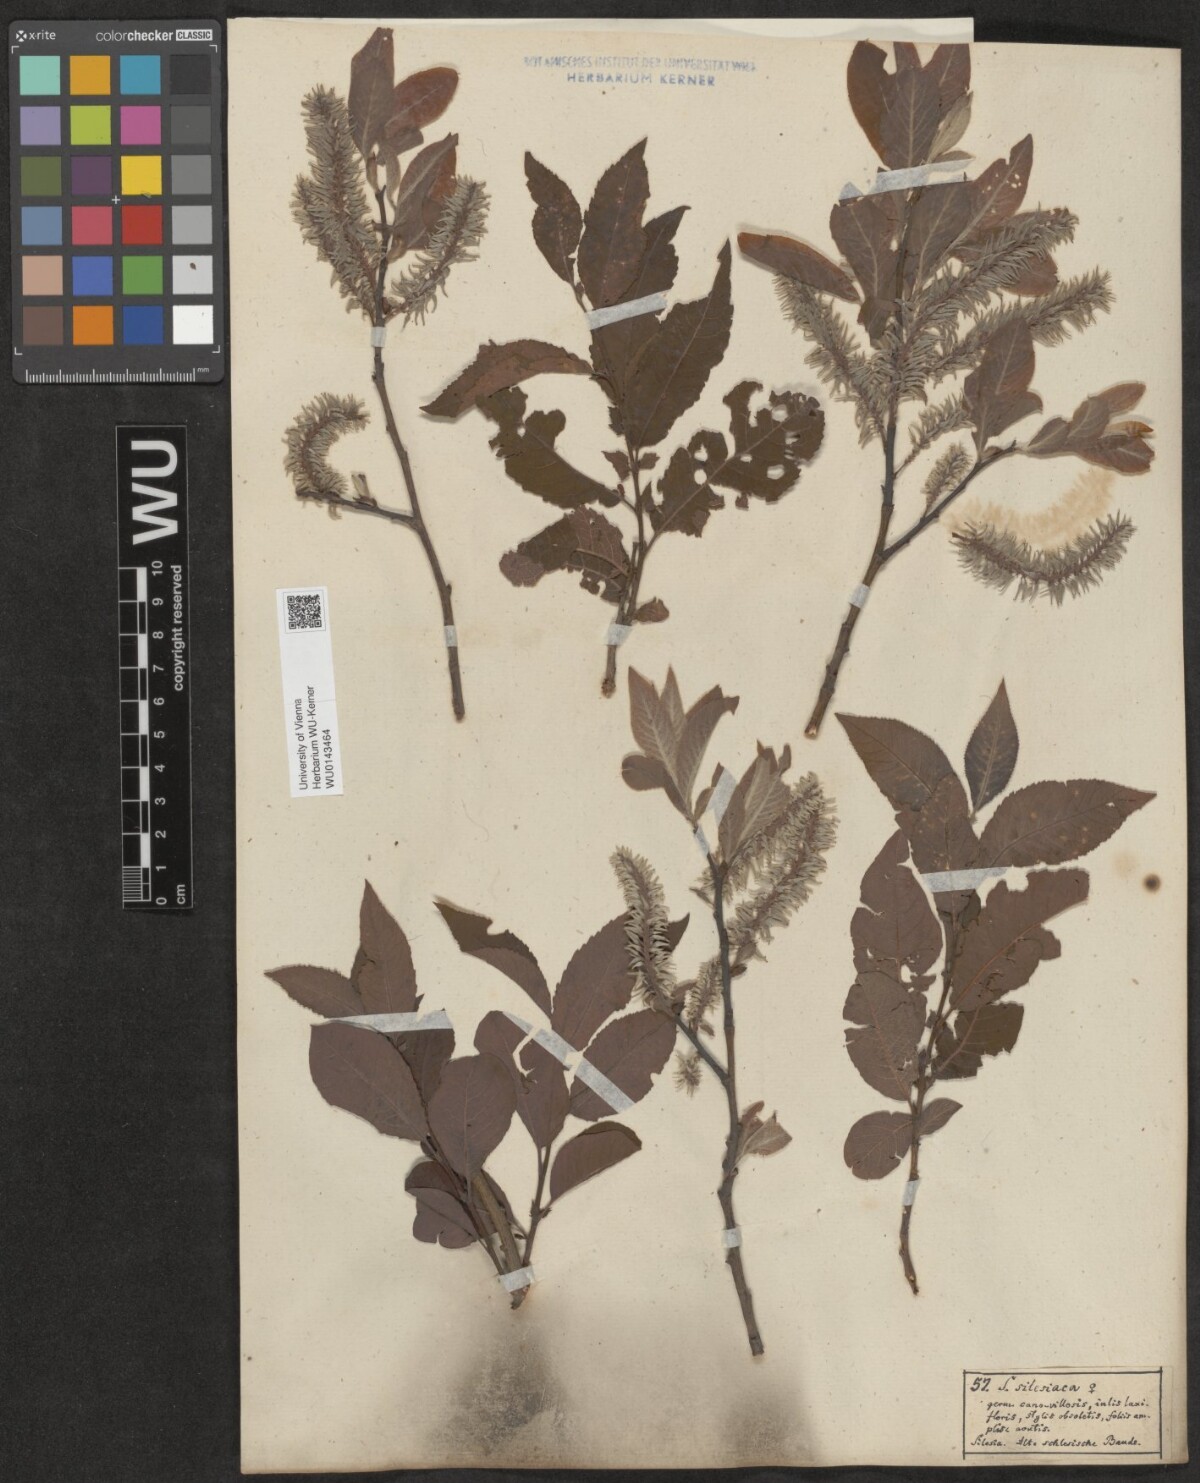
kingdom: Plantae
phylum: Tracheophyta
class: Magnoliopsida
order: Malpighiales
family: Salicaceae
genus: Salix
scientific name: Salix silesiaca
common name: Silesian willow
